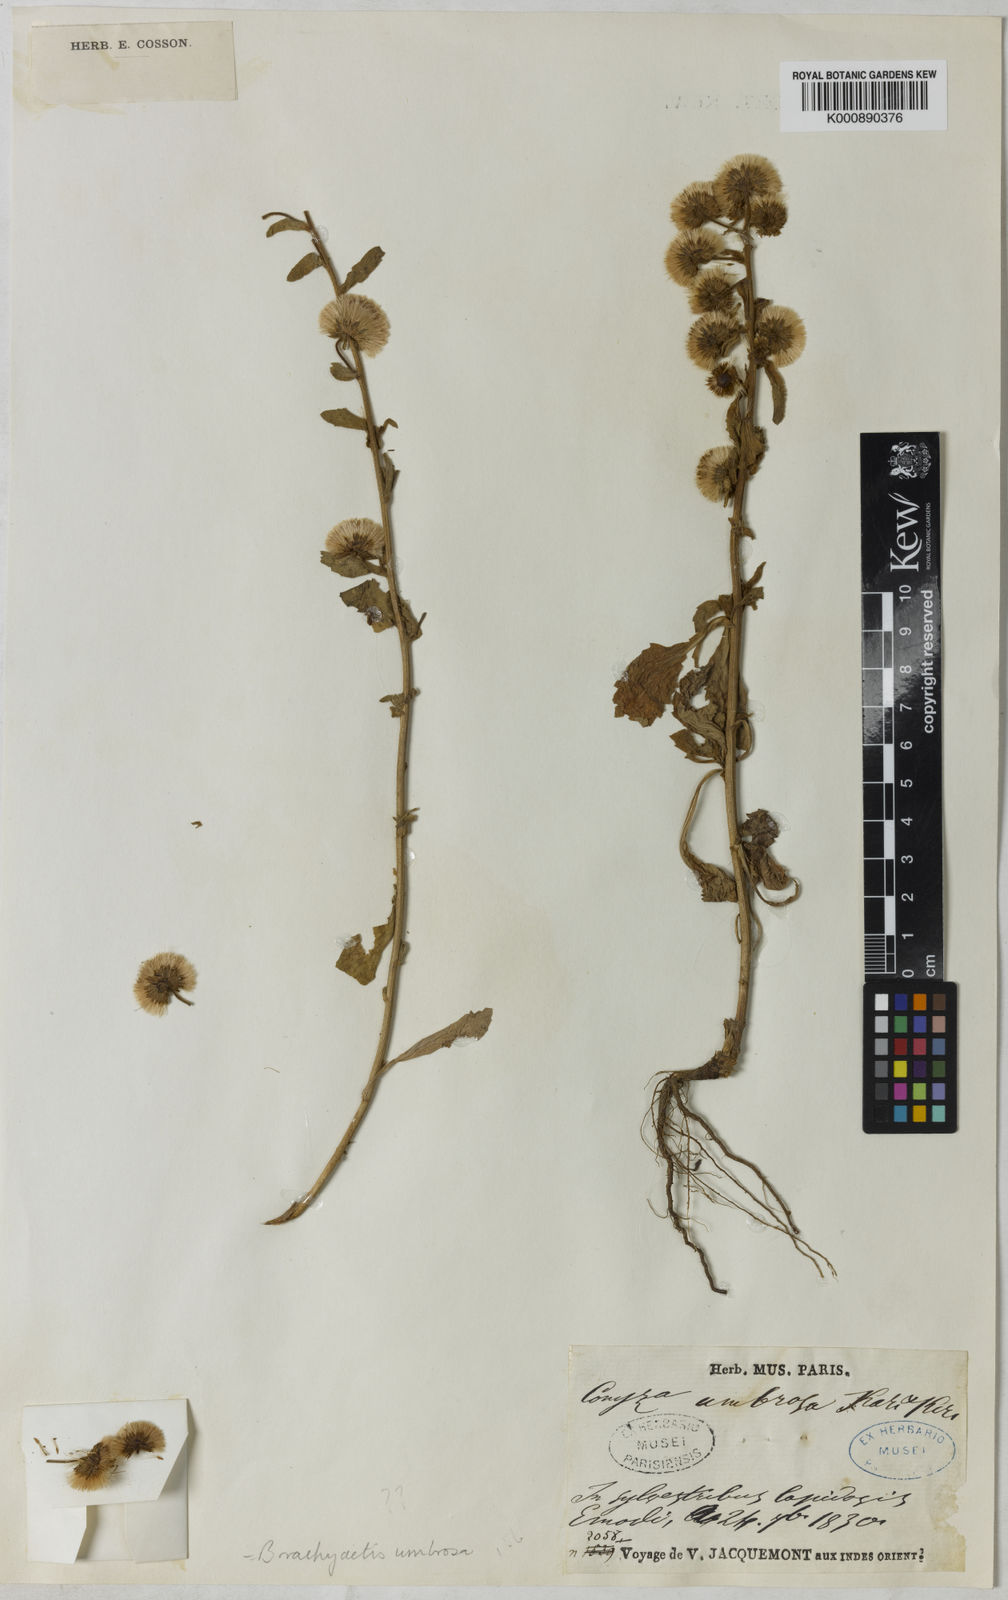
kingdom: Plantae
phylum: Tracheophyta
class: Magnoliopsida
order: Asterales
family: Asteraceae
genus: Neobrachyactis
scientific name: Neobrachyactis roylei
